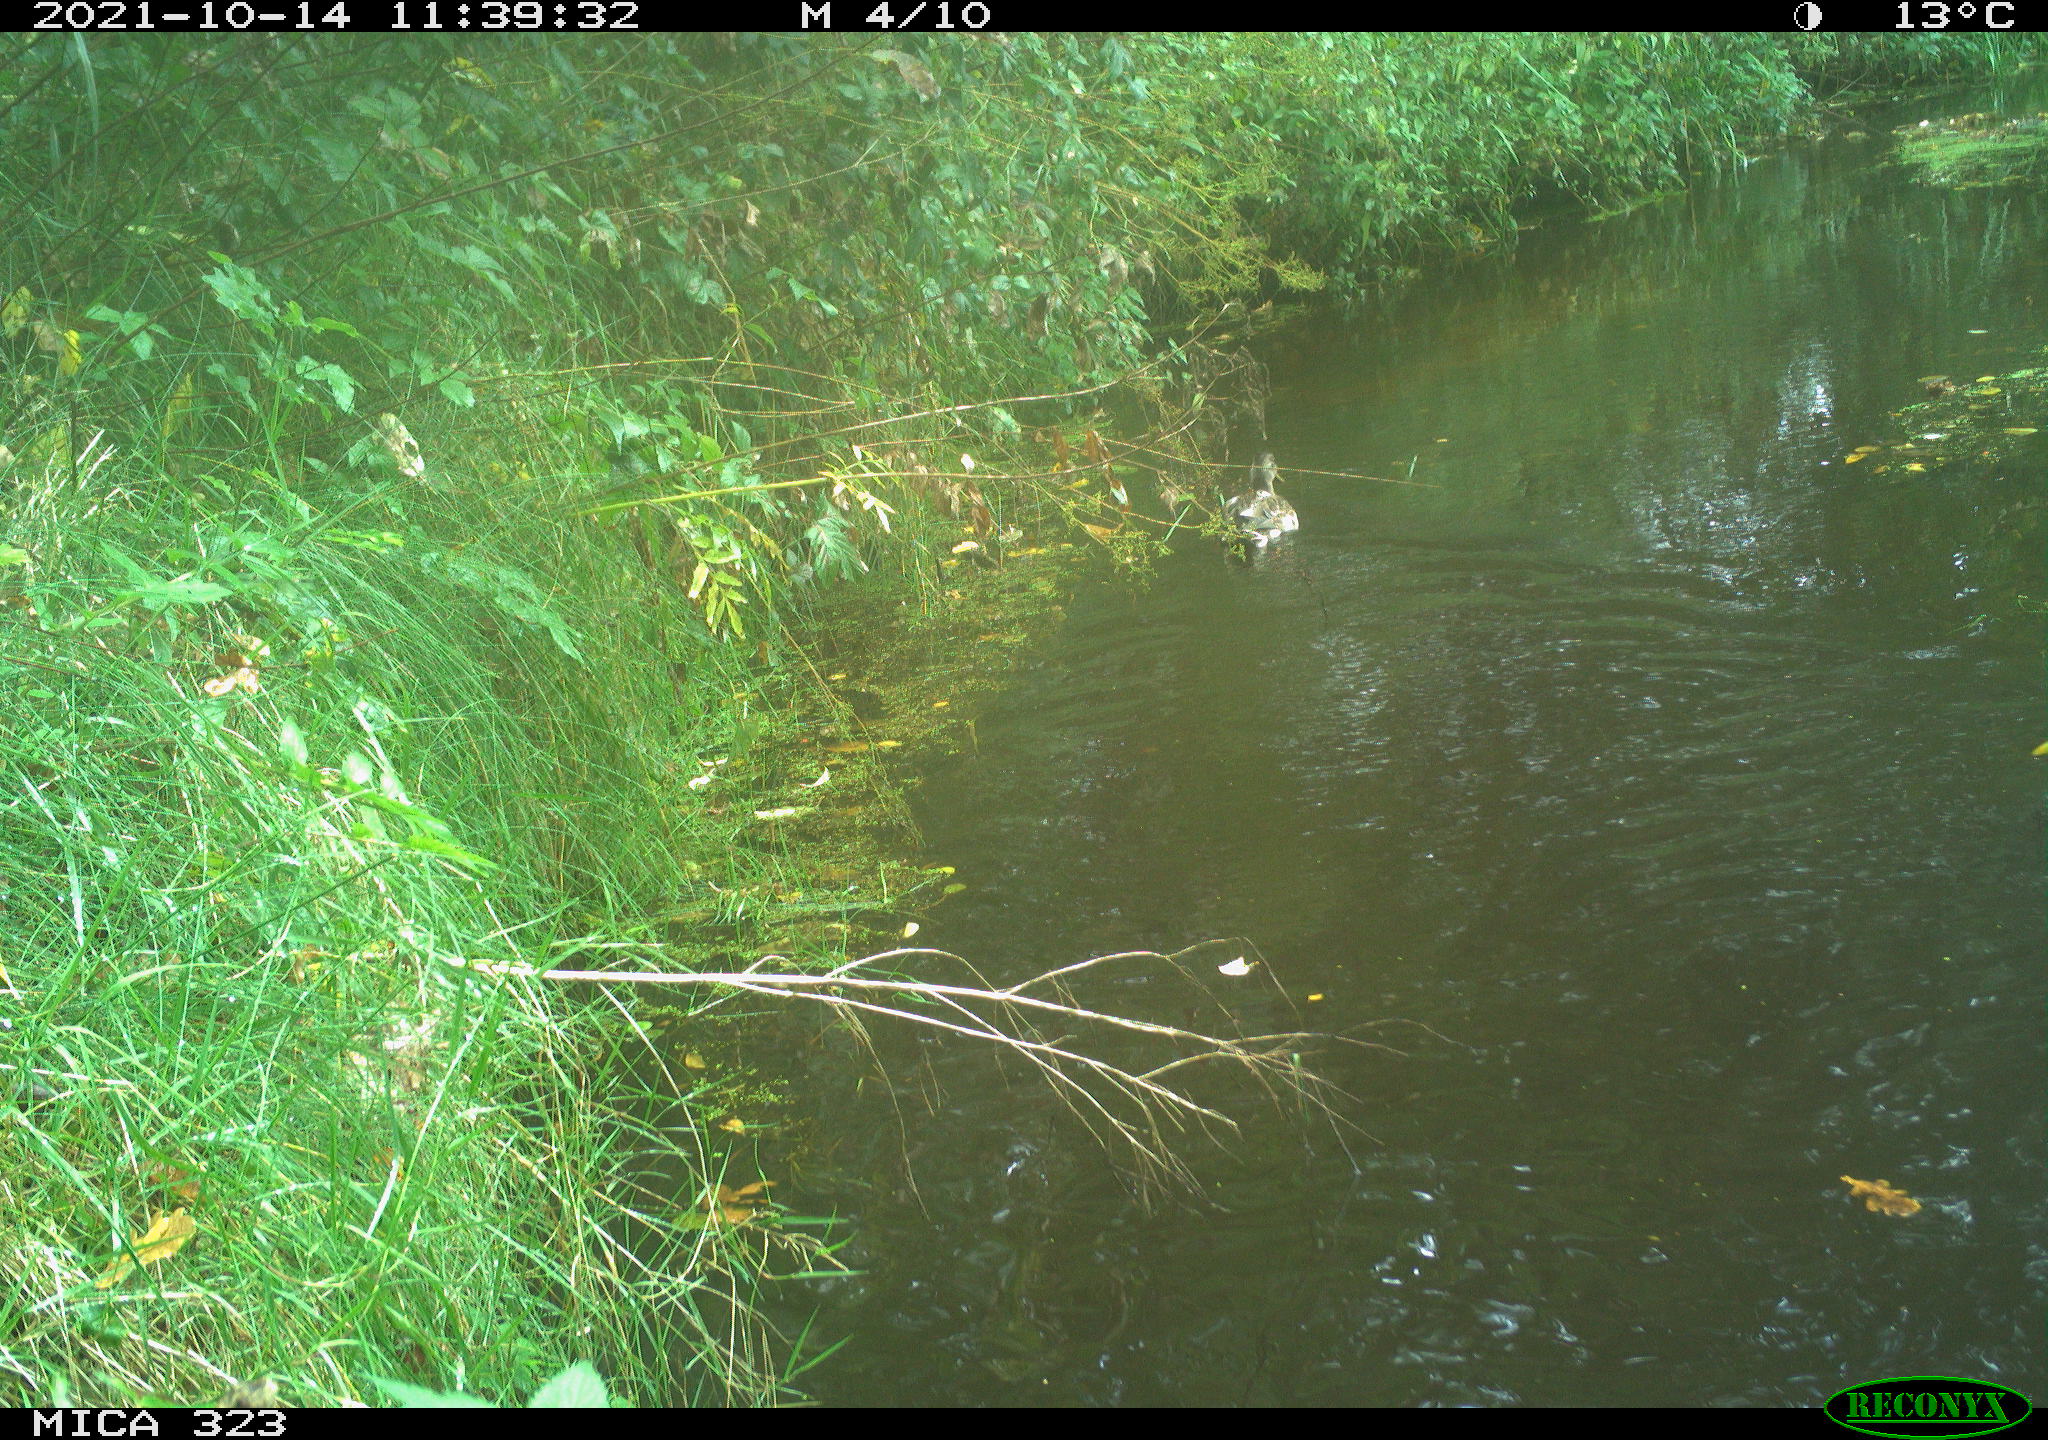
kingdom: Animalia
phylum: Chordata
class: Aves
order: Anseriformes
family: Anatidae
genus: Anas
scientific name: Anas platyrhynchos
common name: Mallard
